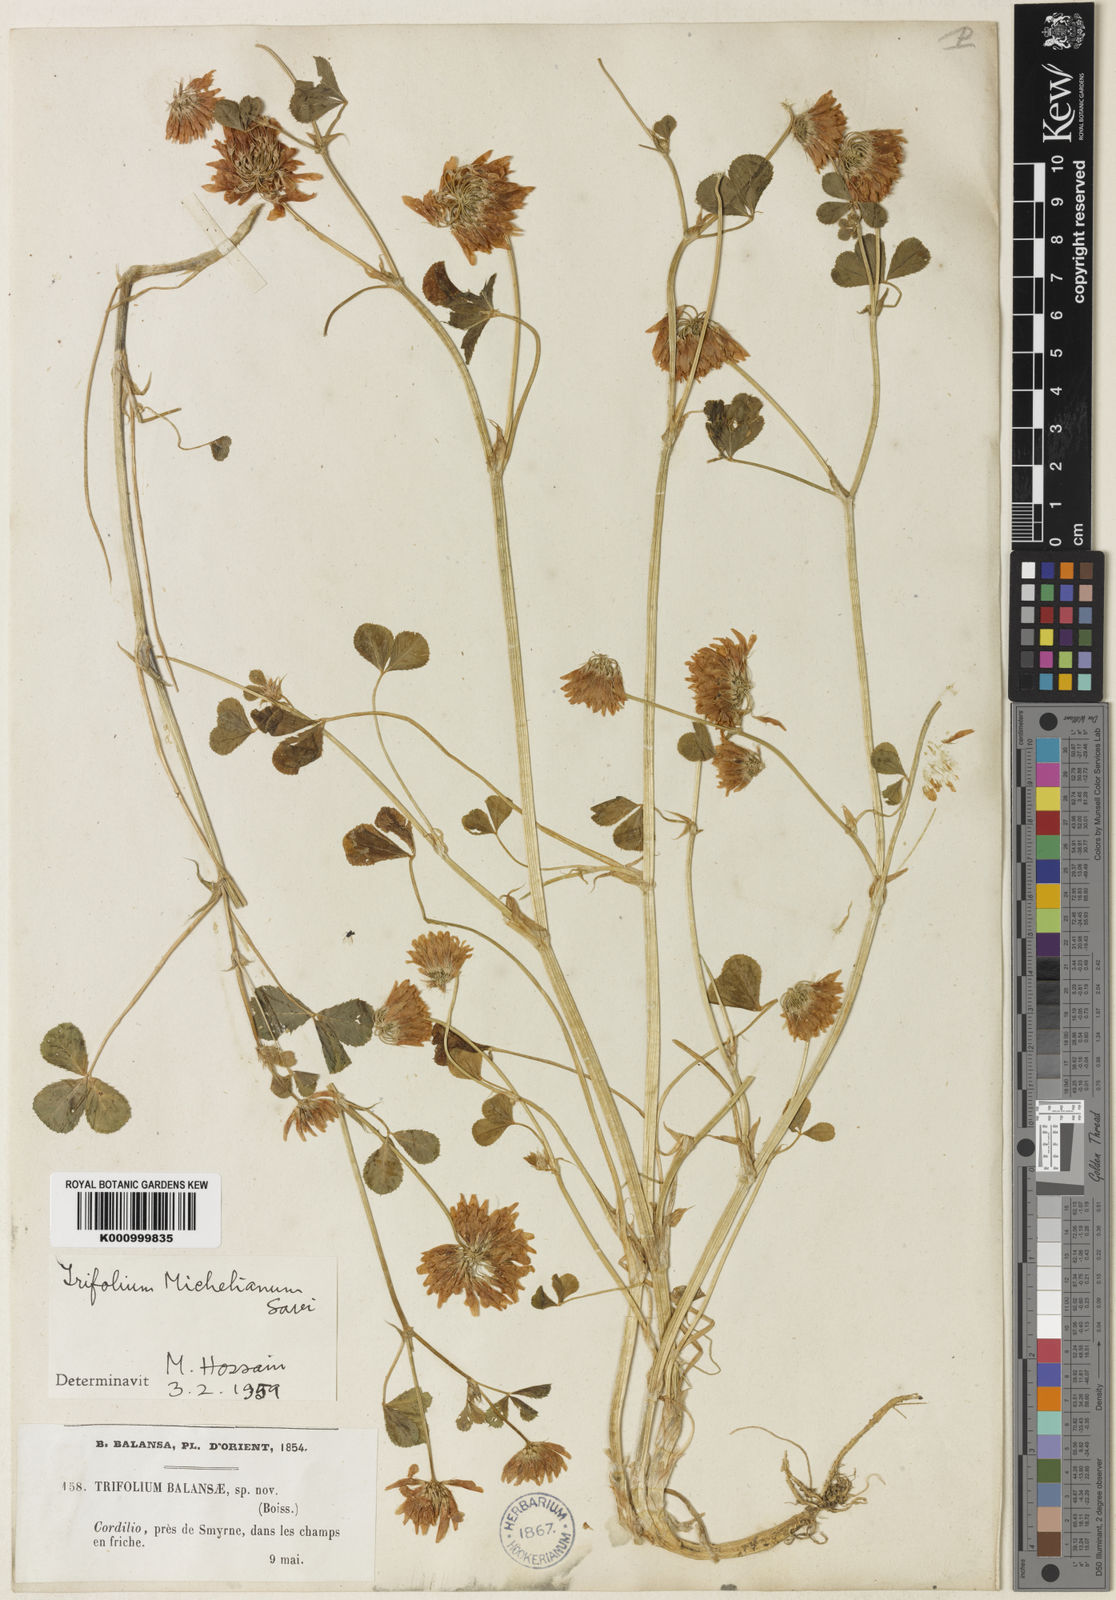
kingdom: Plantae
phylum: Tracheophyta
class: Magnoliopsida
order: Fabales
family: Fabaceae
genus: Trifolium
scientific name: Trifolium michelianum
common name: Bigflower clover
